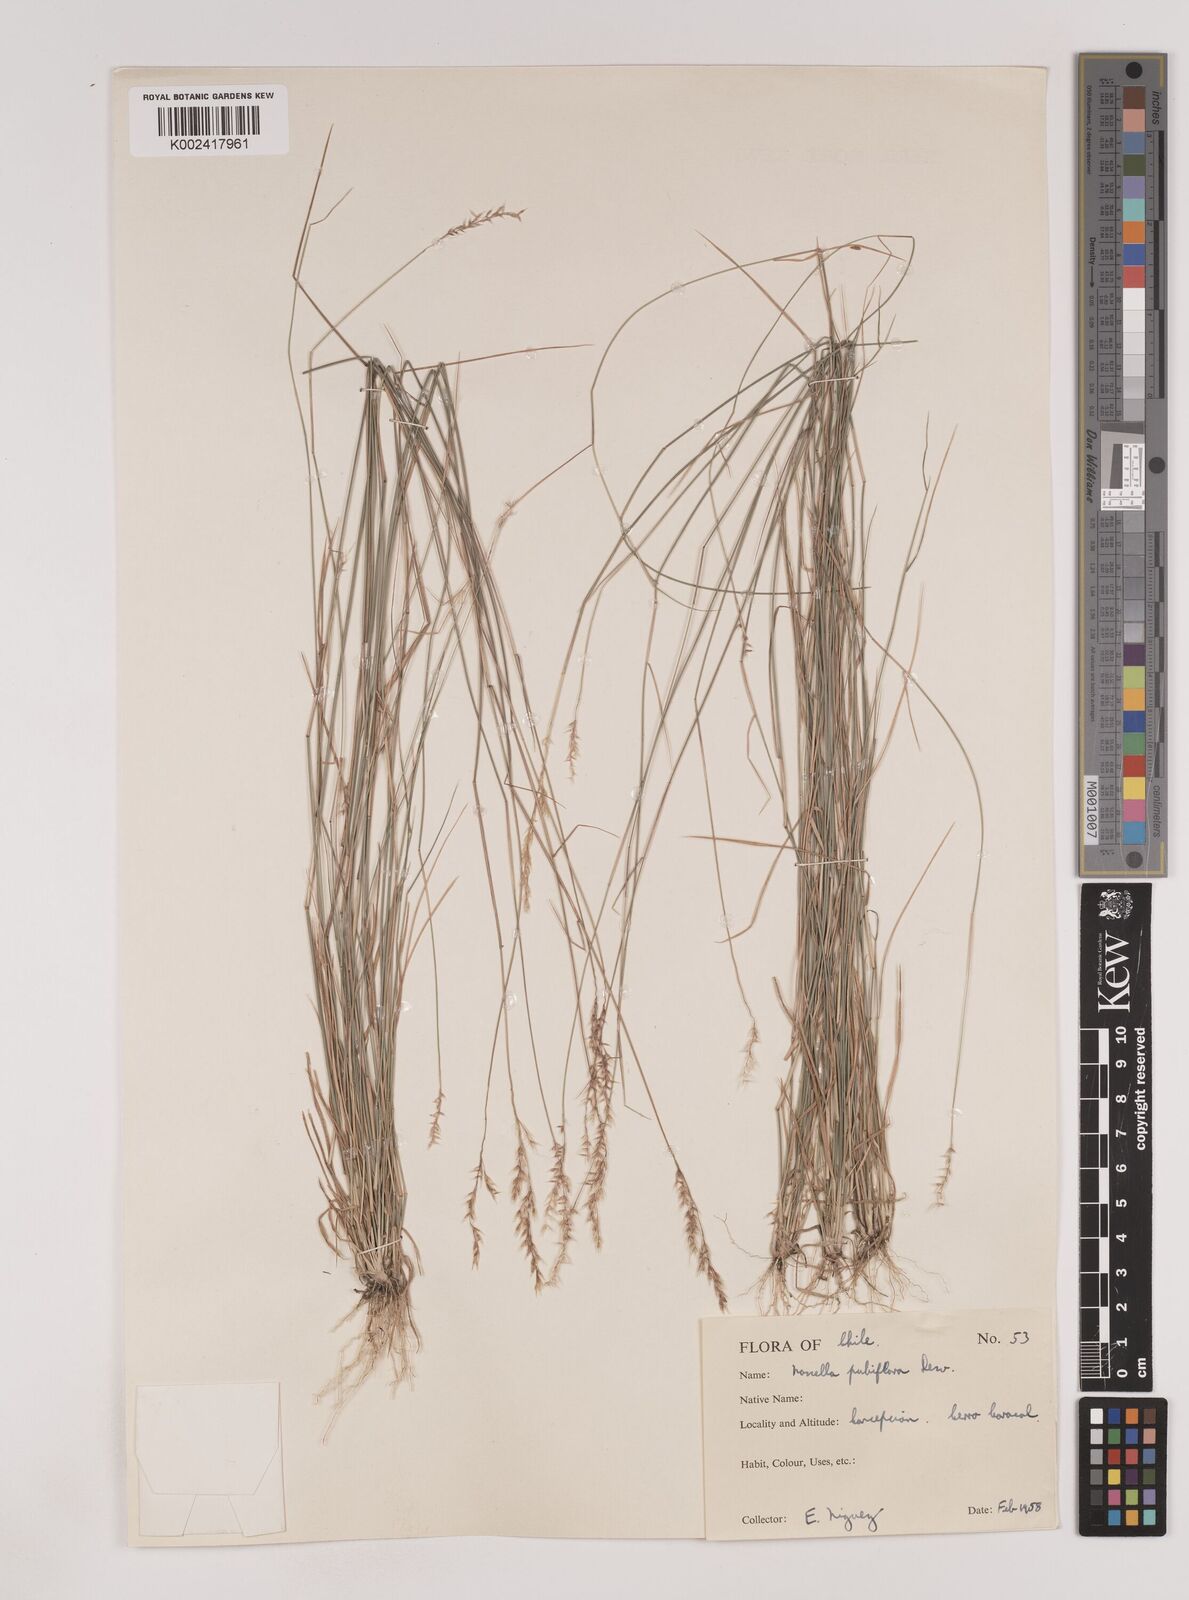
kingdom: Plantae
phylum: Tracheophyta
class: Liliopsida
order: Poales
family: Poaceae
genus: Nassella
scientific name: Nassella pubiflora
